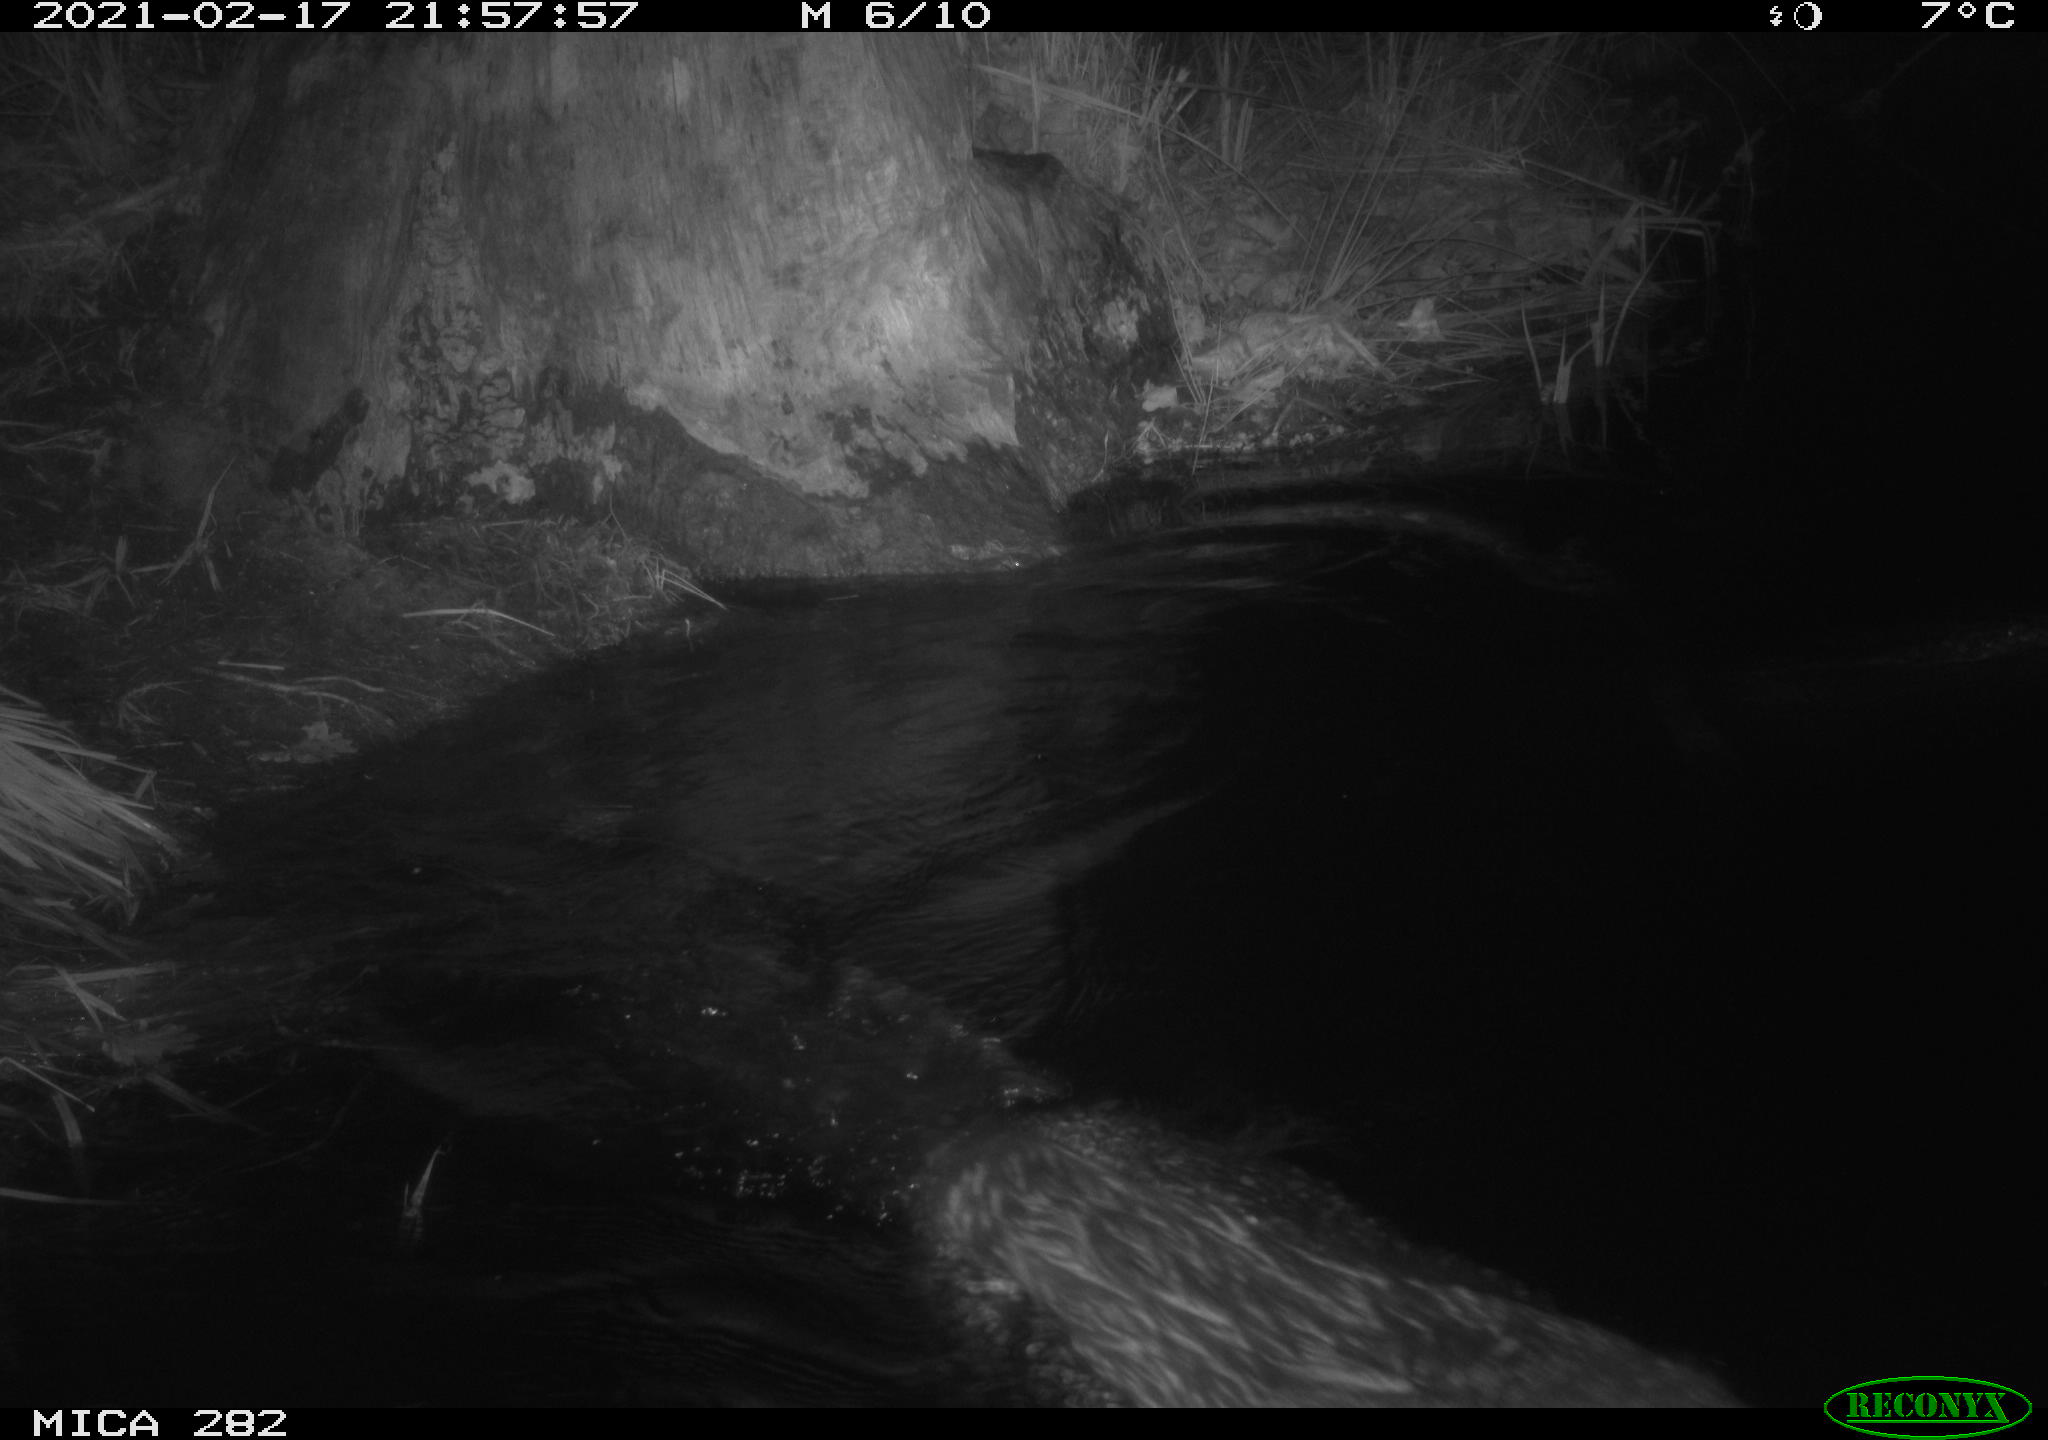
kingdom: Animalia
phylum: Chordata
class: Mammalia
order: Rodentia
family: Castoridae
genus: Castor
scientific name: Castor fiber
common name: Eurasian beaver
